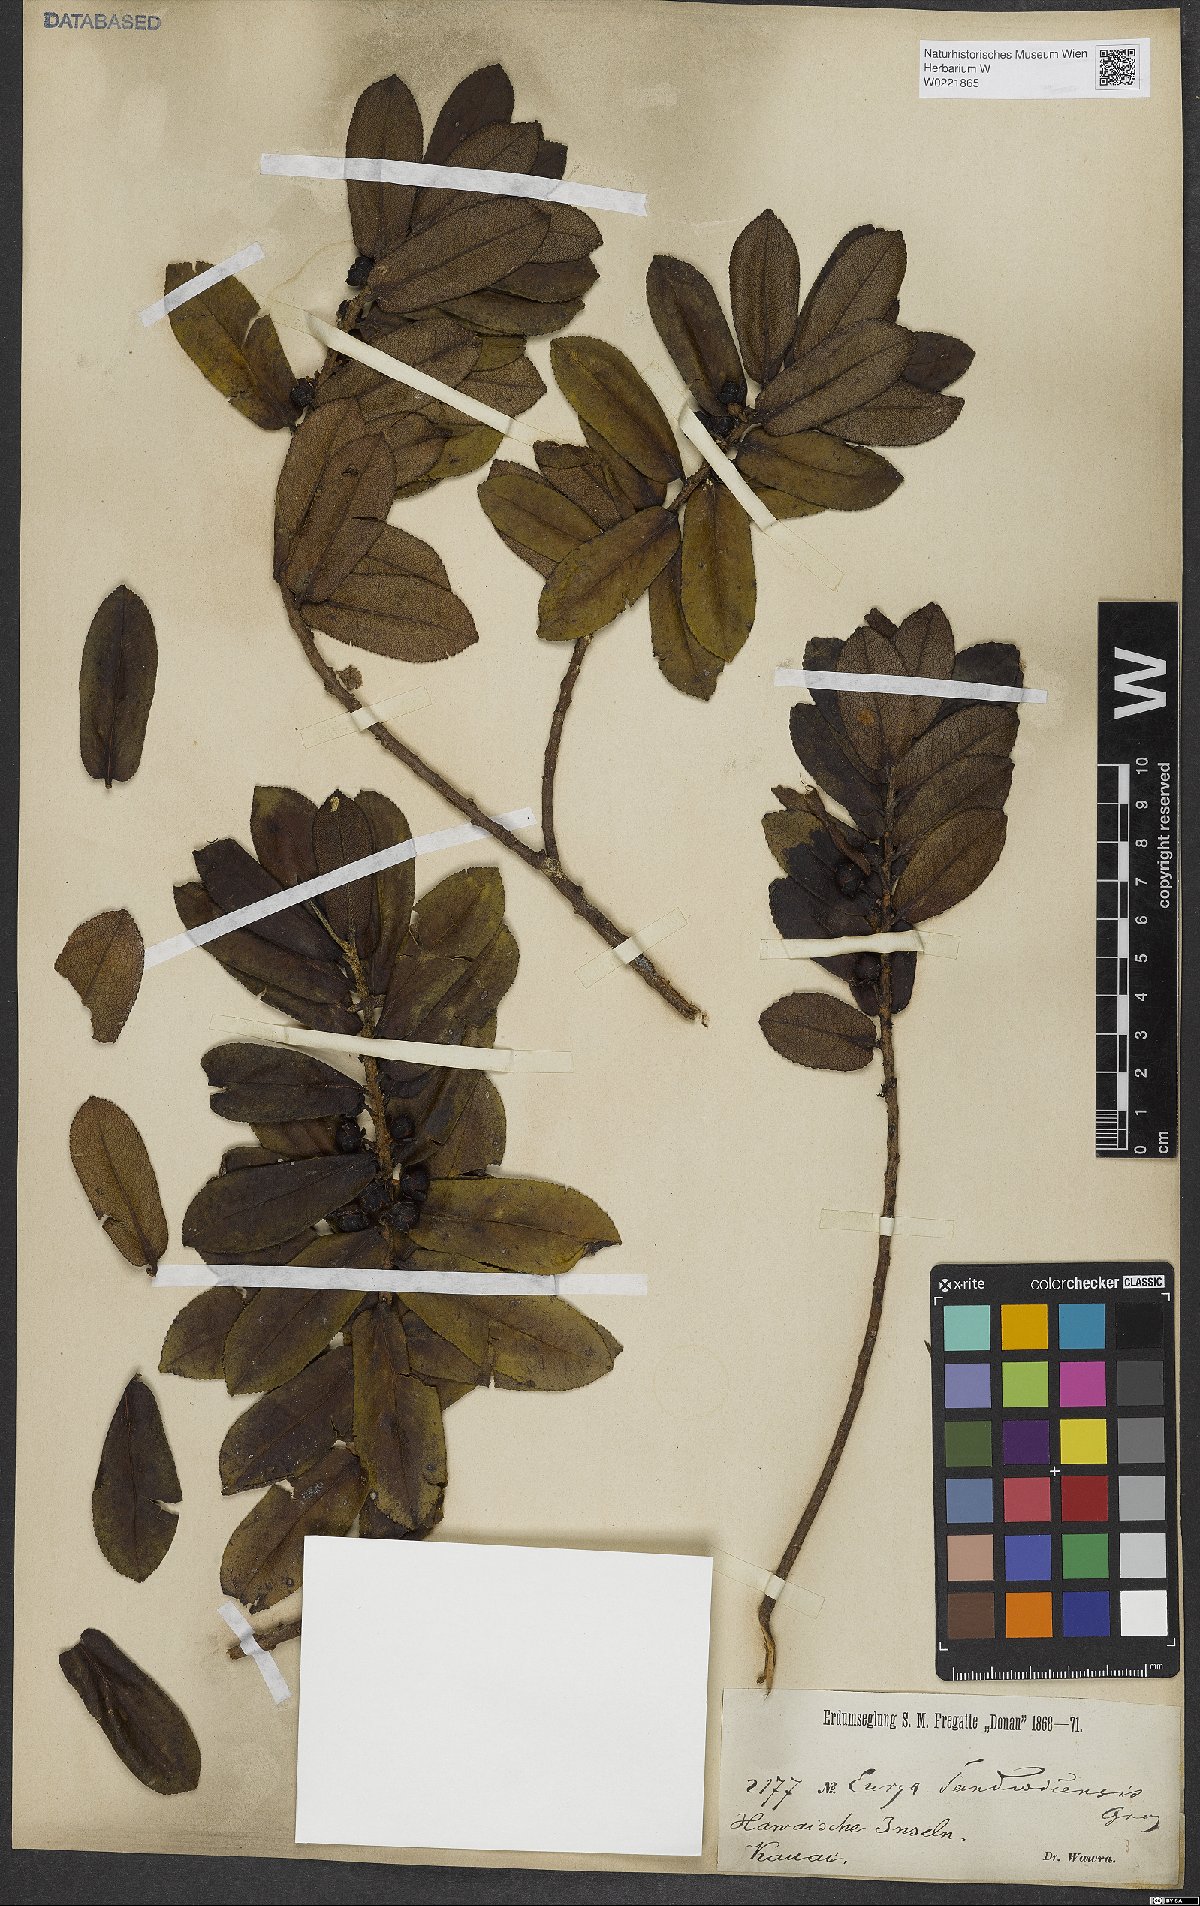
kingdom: Plantae
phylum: Tracheophyta
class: Magnoliopsida
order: Ericales
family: Pentaphylacaceae
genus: Eurya
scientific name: Eurya sandwicensis
